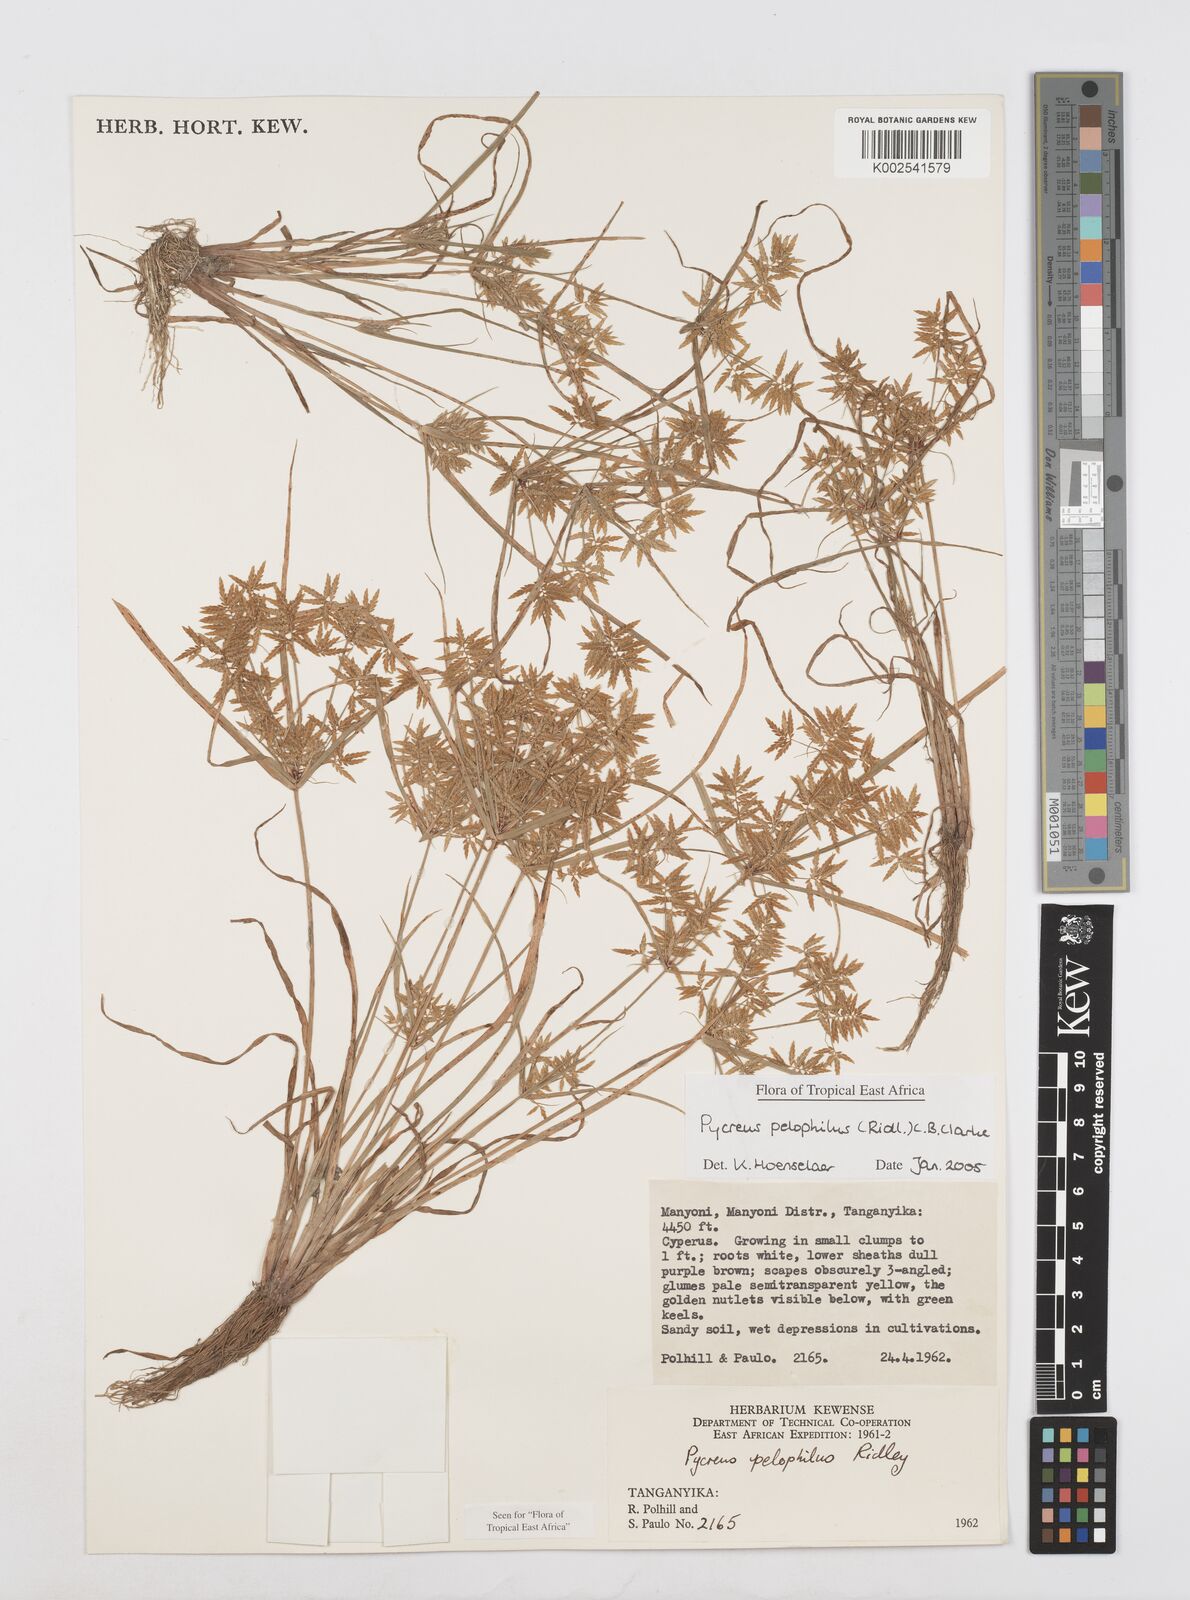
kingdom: Plantae
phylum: Tracheophyta
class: Liliopsida
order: Poales
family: Cyperaceae
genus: Cyperus
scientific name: Cyperus pelophilus
